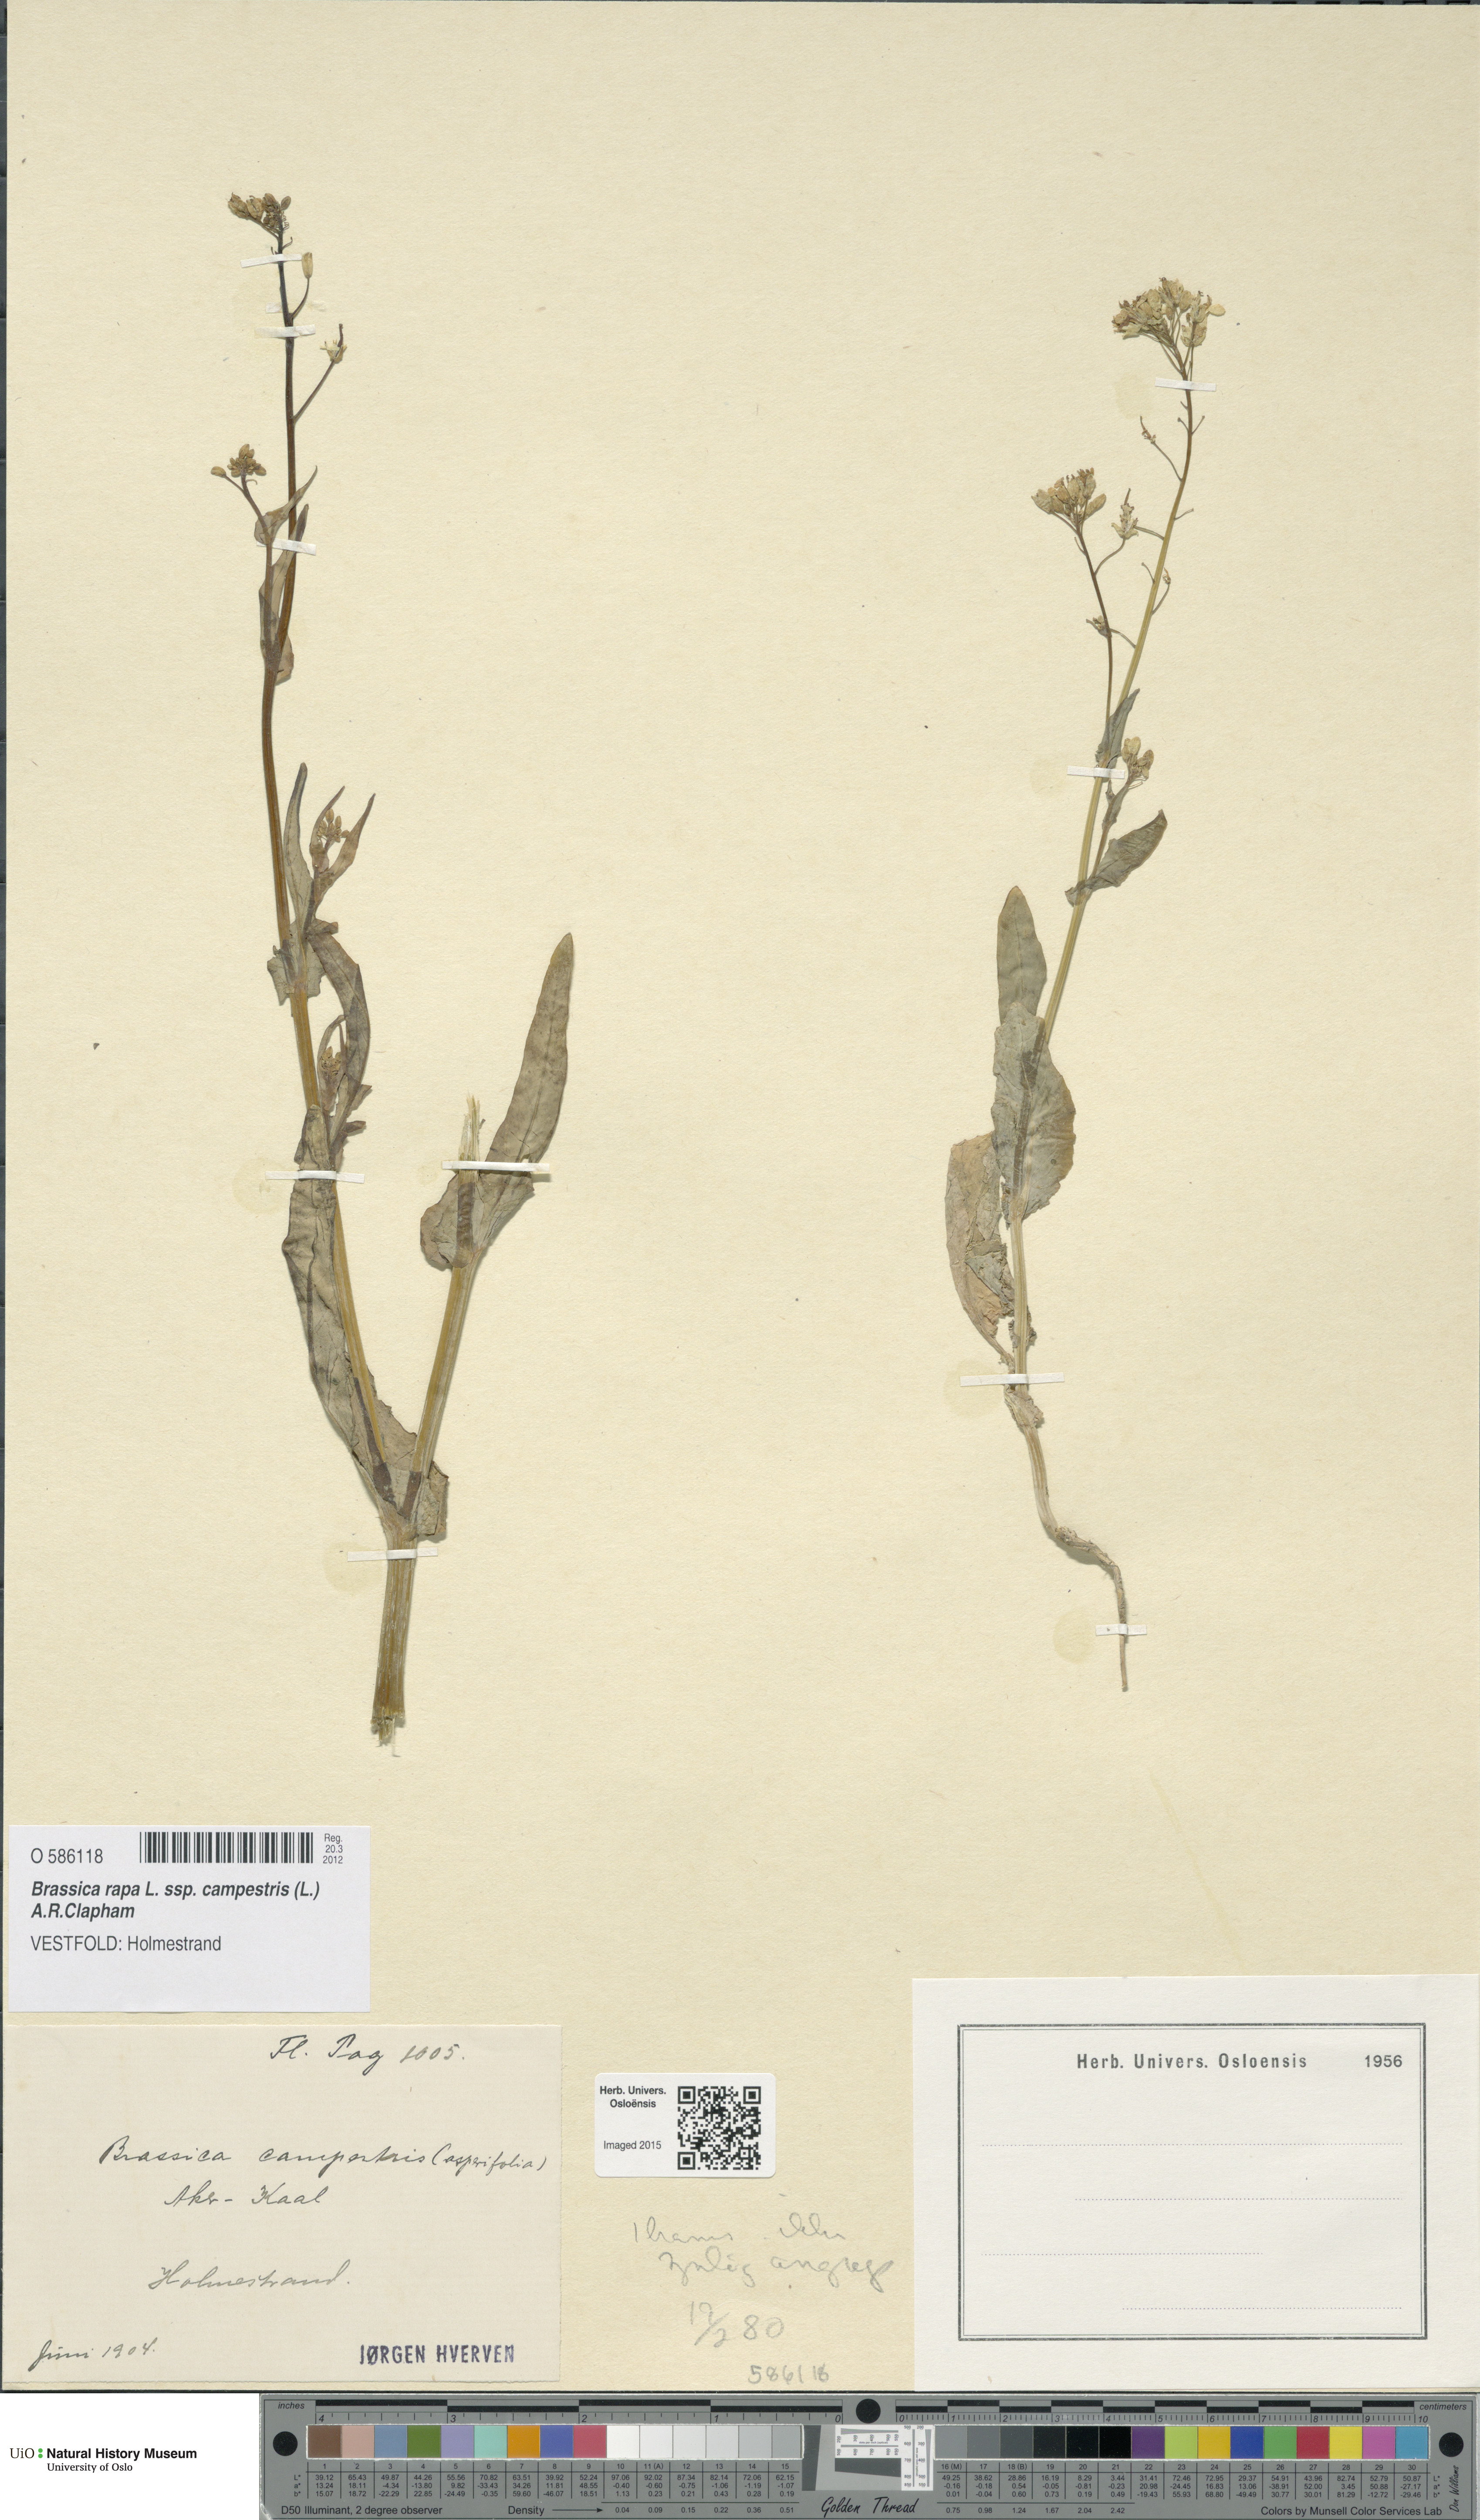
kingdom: Plantae
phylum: Tracheophyta
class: Magnoliopsida
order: Brassicales
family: Brassicaceae
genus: Brassica
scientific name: Brassica rapa
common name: Field mustard
